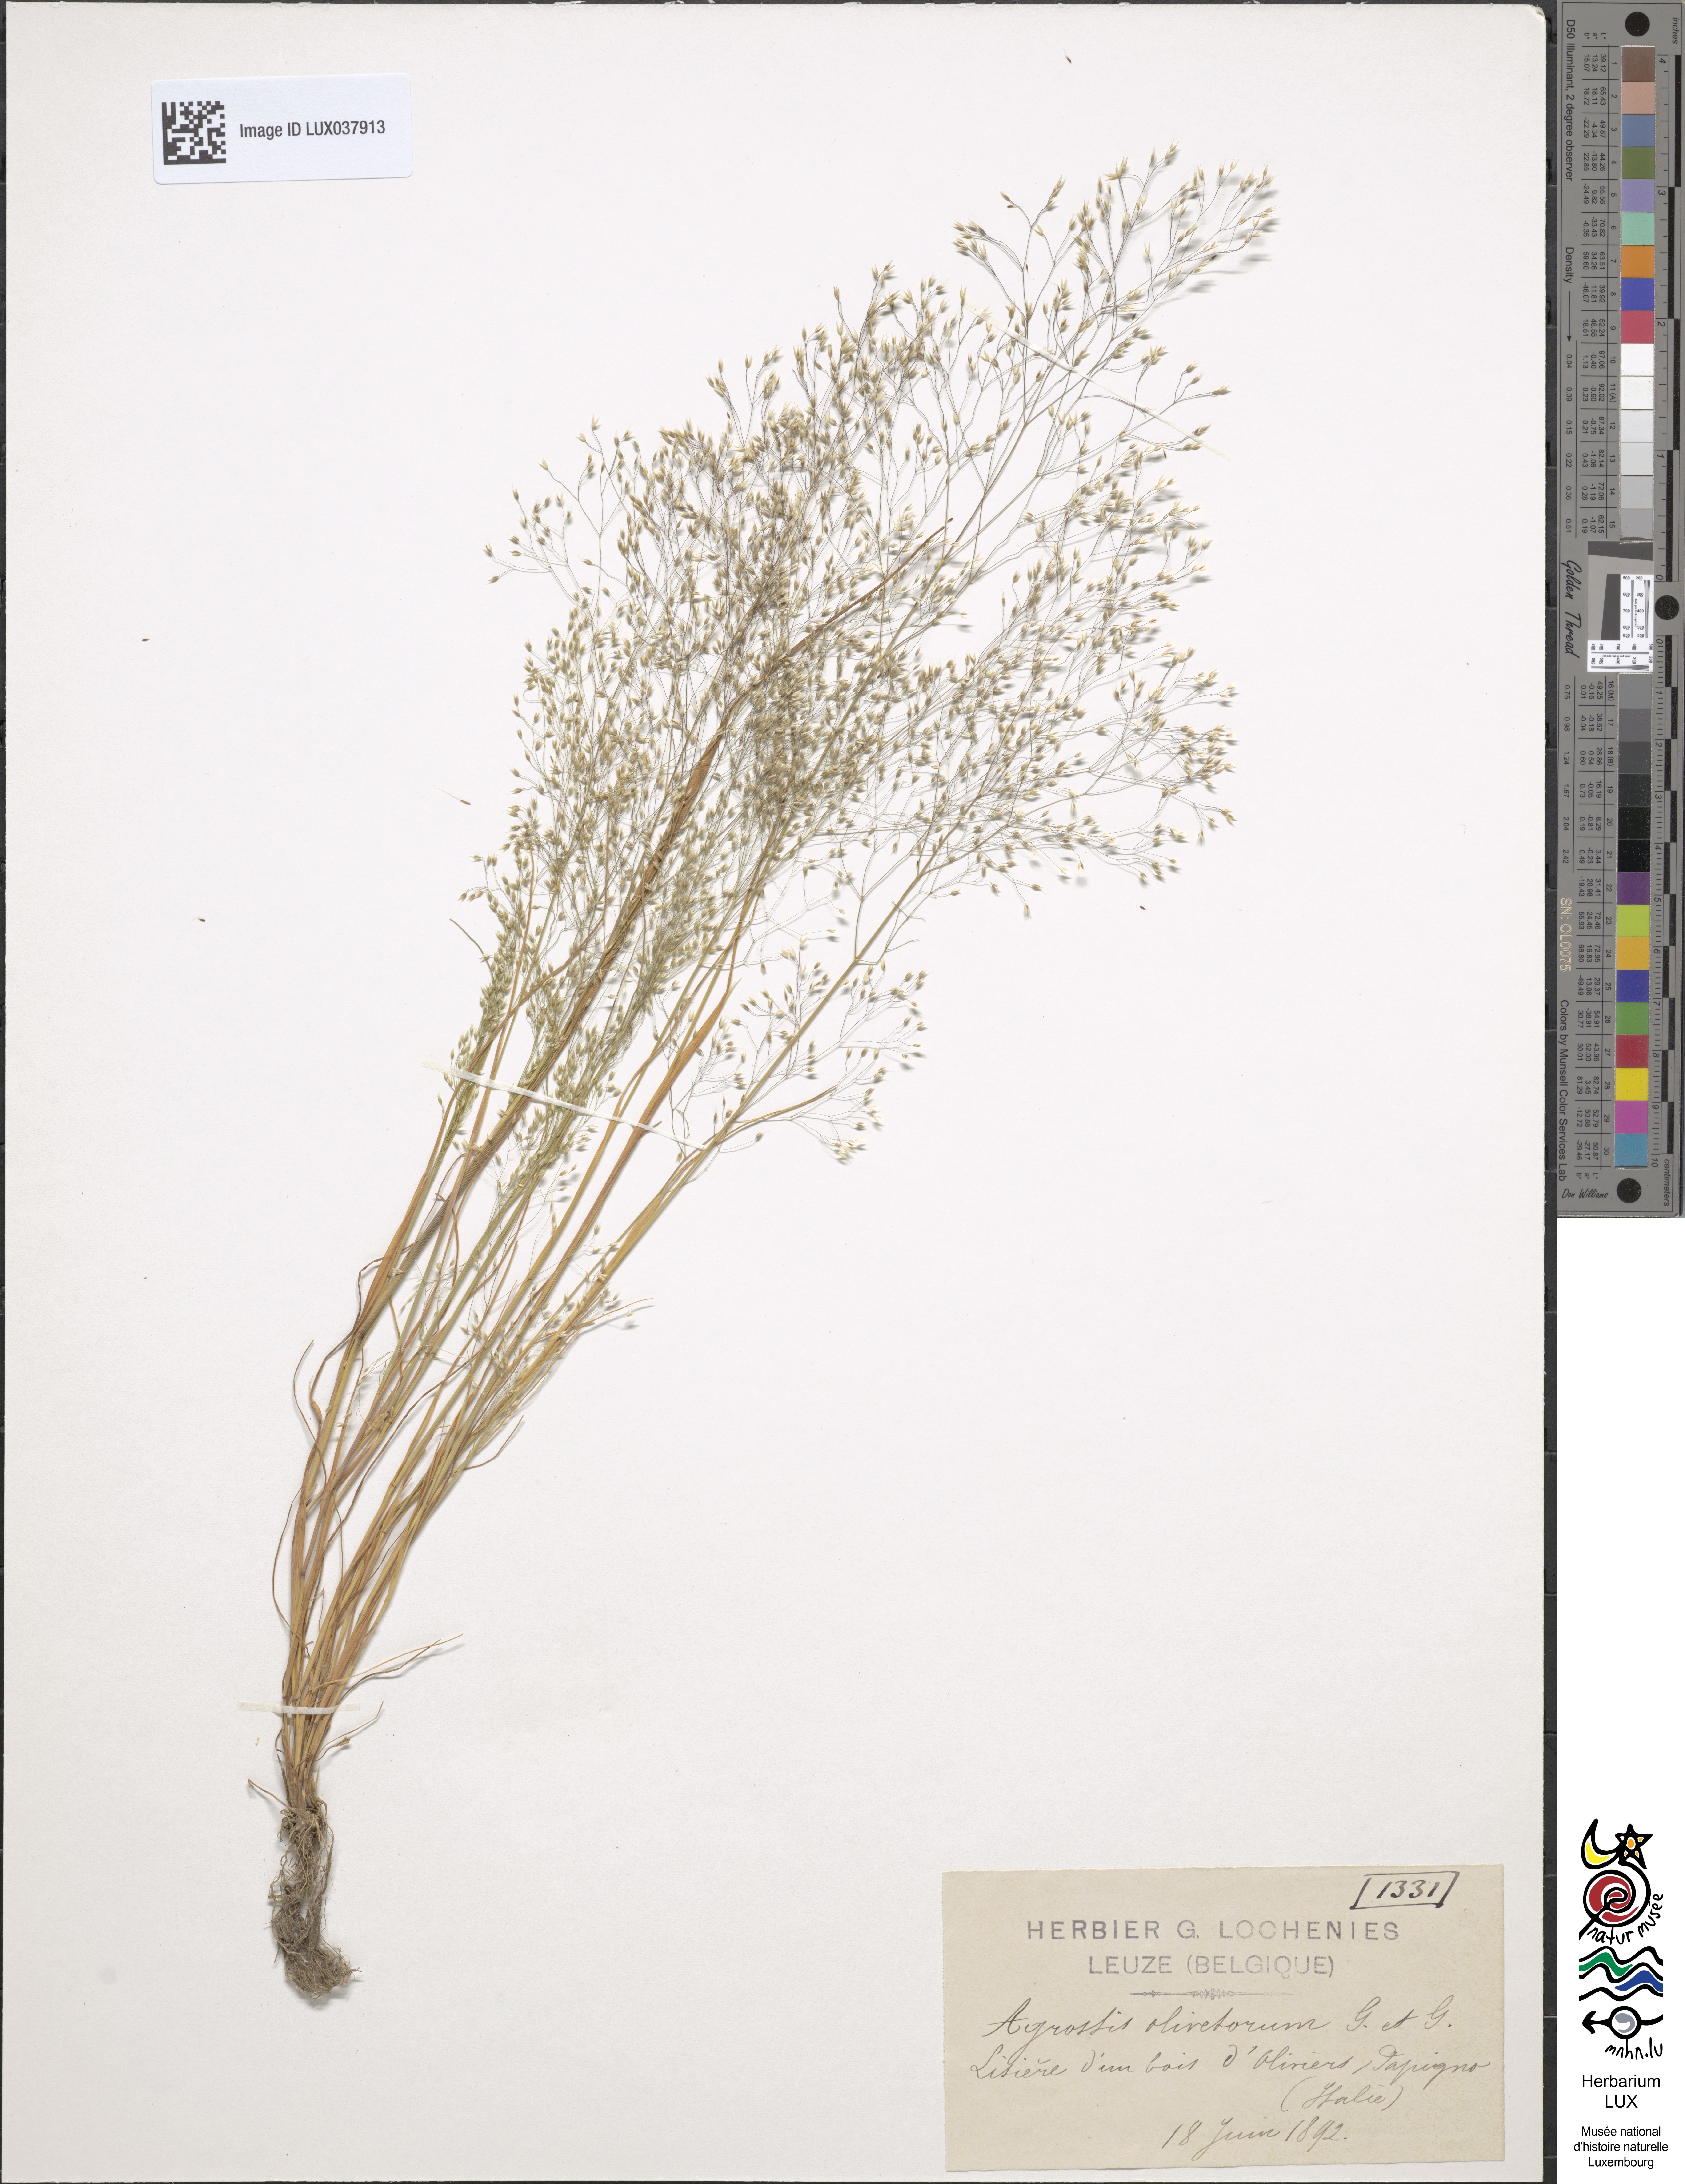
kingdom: Plantae
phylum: Tracheophyta
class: Liliopsida
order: Poales
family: Poaceae
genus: Agrostis
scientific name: Agrostis castellana
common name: Highland bent
